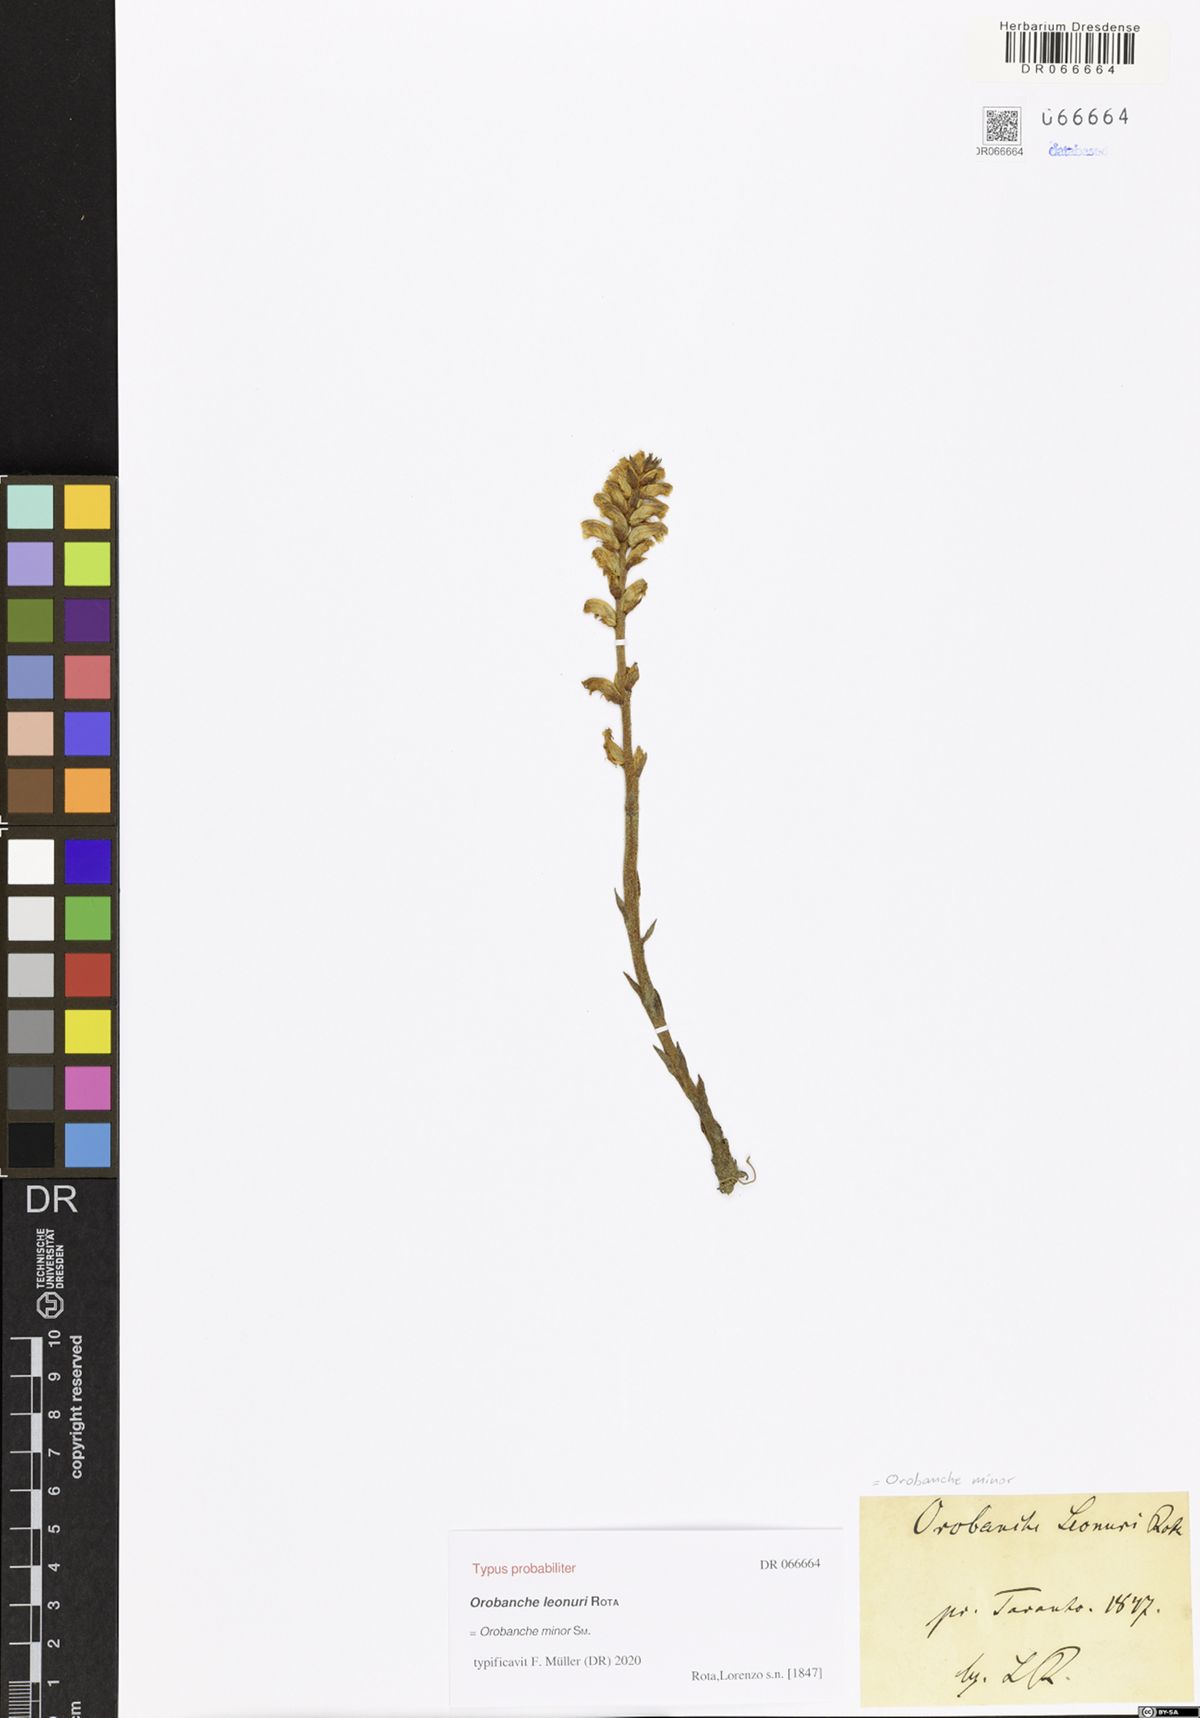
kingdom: Plantae
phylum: Tracheophyta
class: Magnoliopsida
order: Lamiales
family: Orobanchaceae
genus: Orobanche
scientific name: Orobanche minor
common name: Common broomrape
